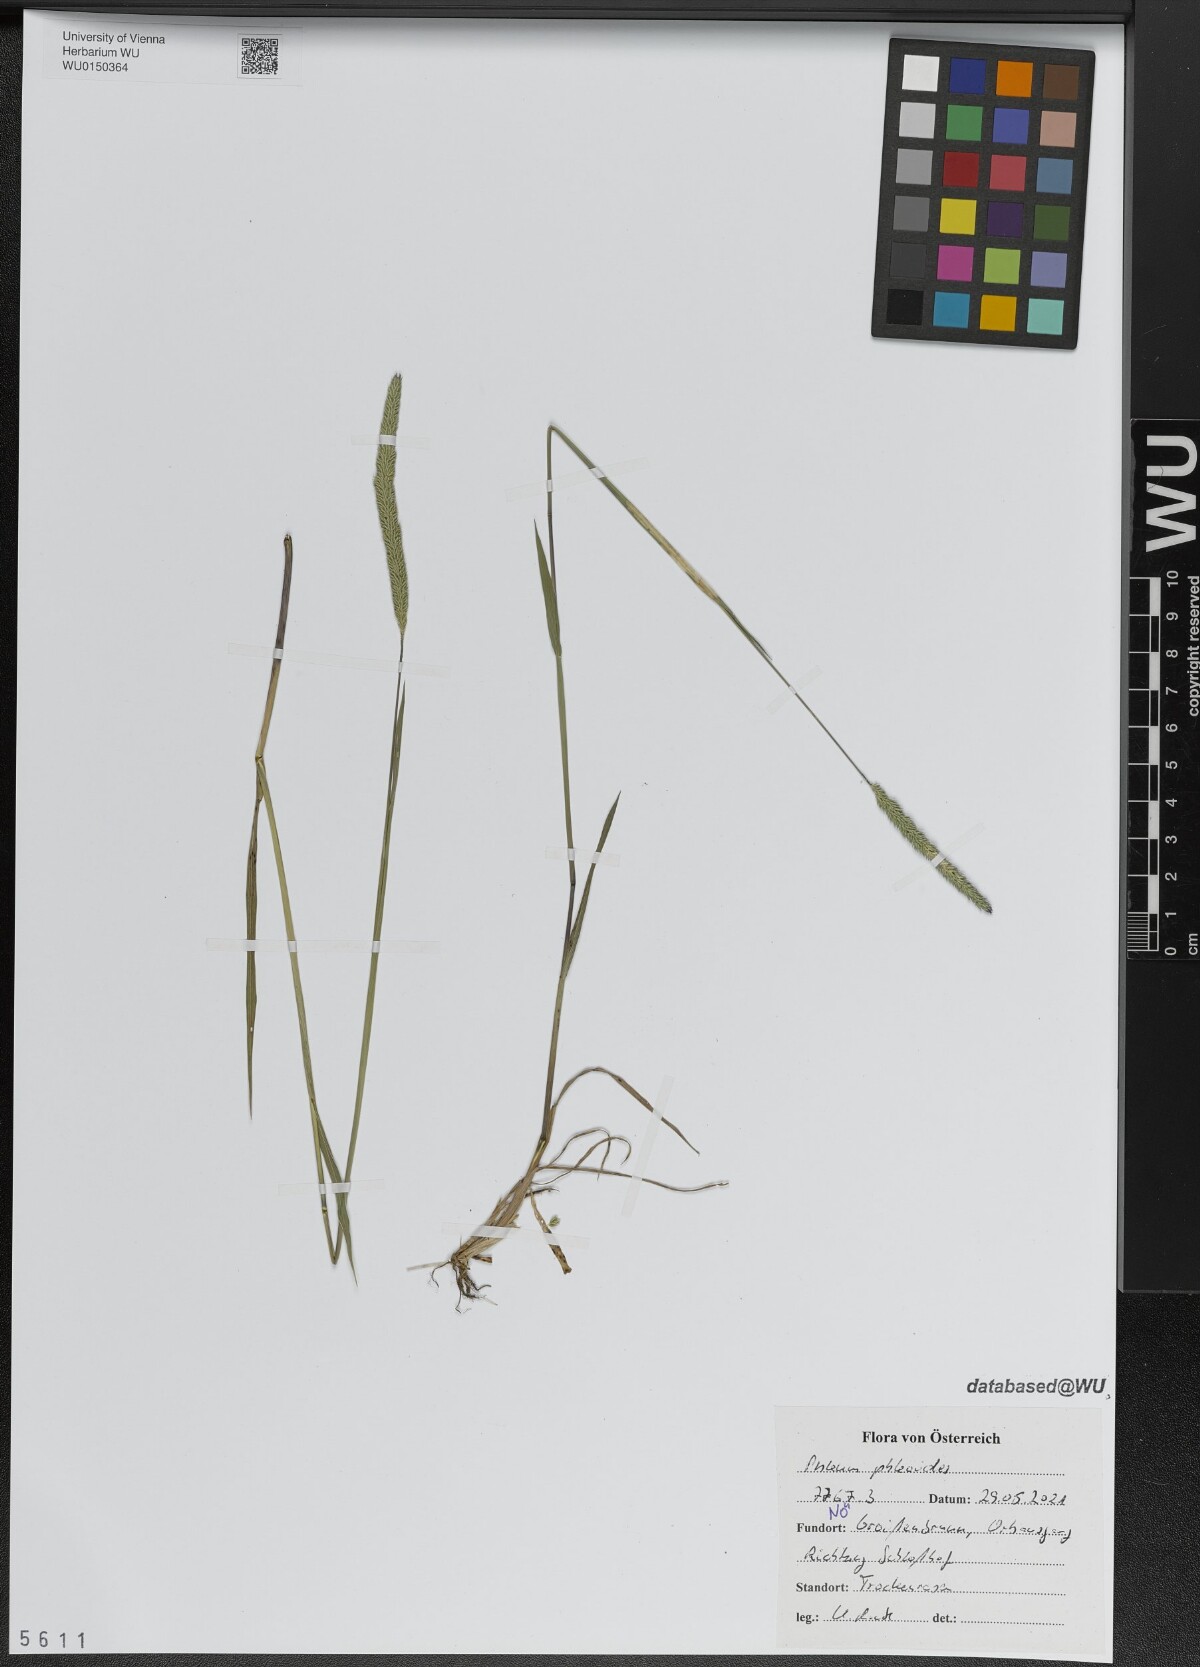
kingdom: Plantae
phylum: Tracheophyta
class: Liliopsida
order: Poales
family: Poaceae
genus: Phleum
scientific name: Phleum phleoides
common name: Purple-stem cat's-tail
